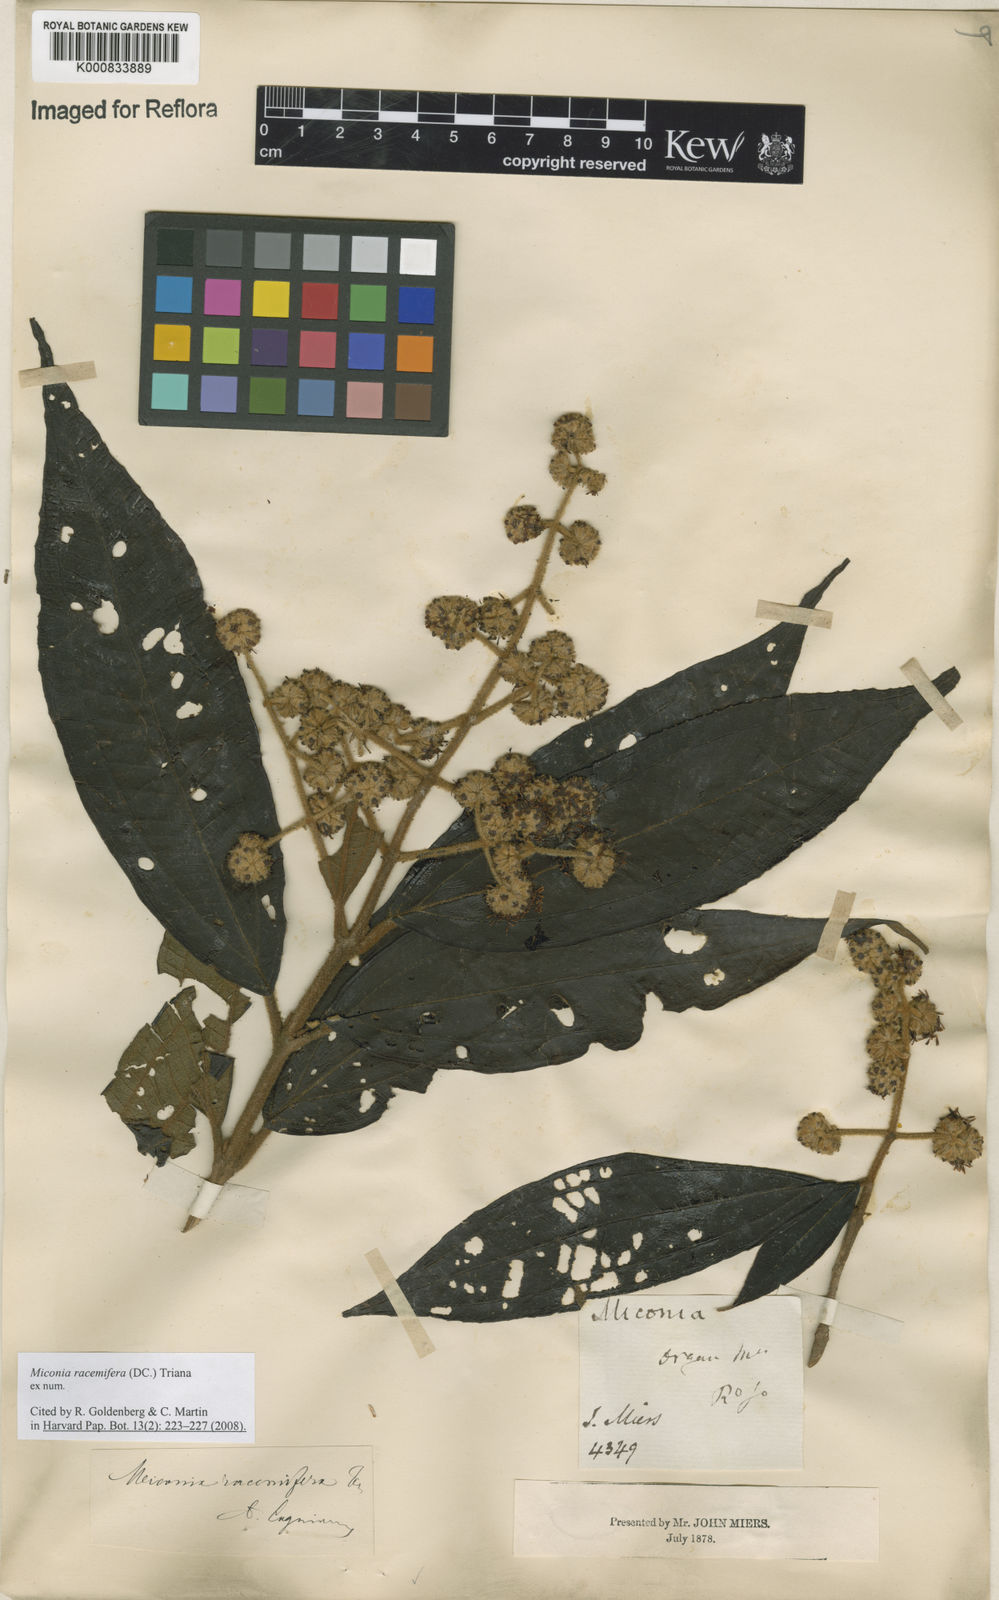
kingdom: Plantae
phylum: Tracheophyta
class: Magnoliopsida
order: Myrtales
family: Melastomataceae
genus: Miconia
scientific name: Miconia racemifera
